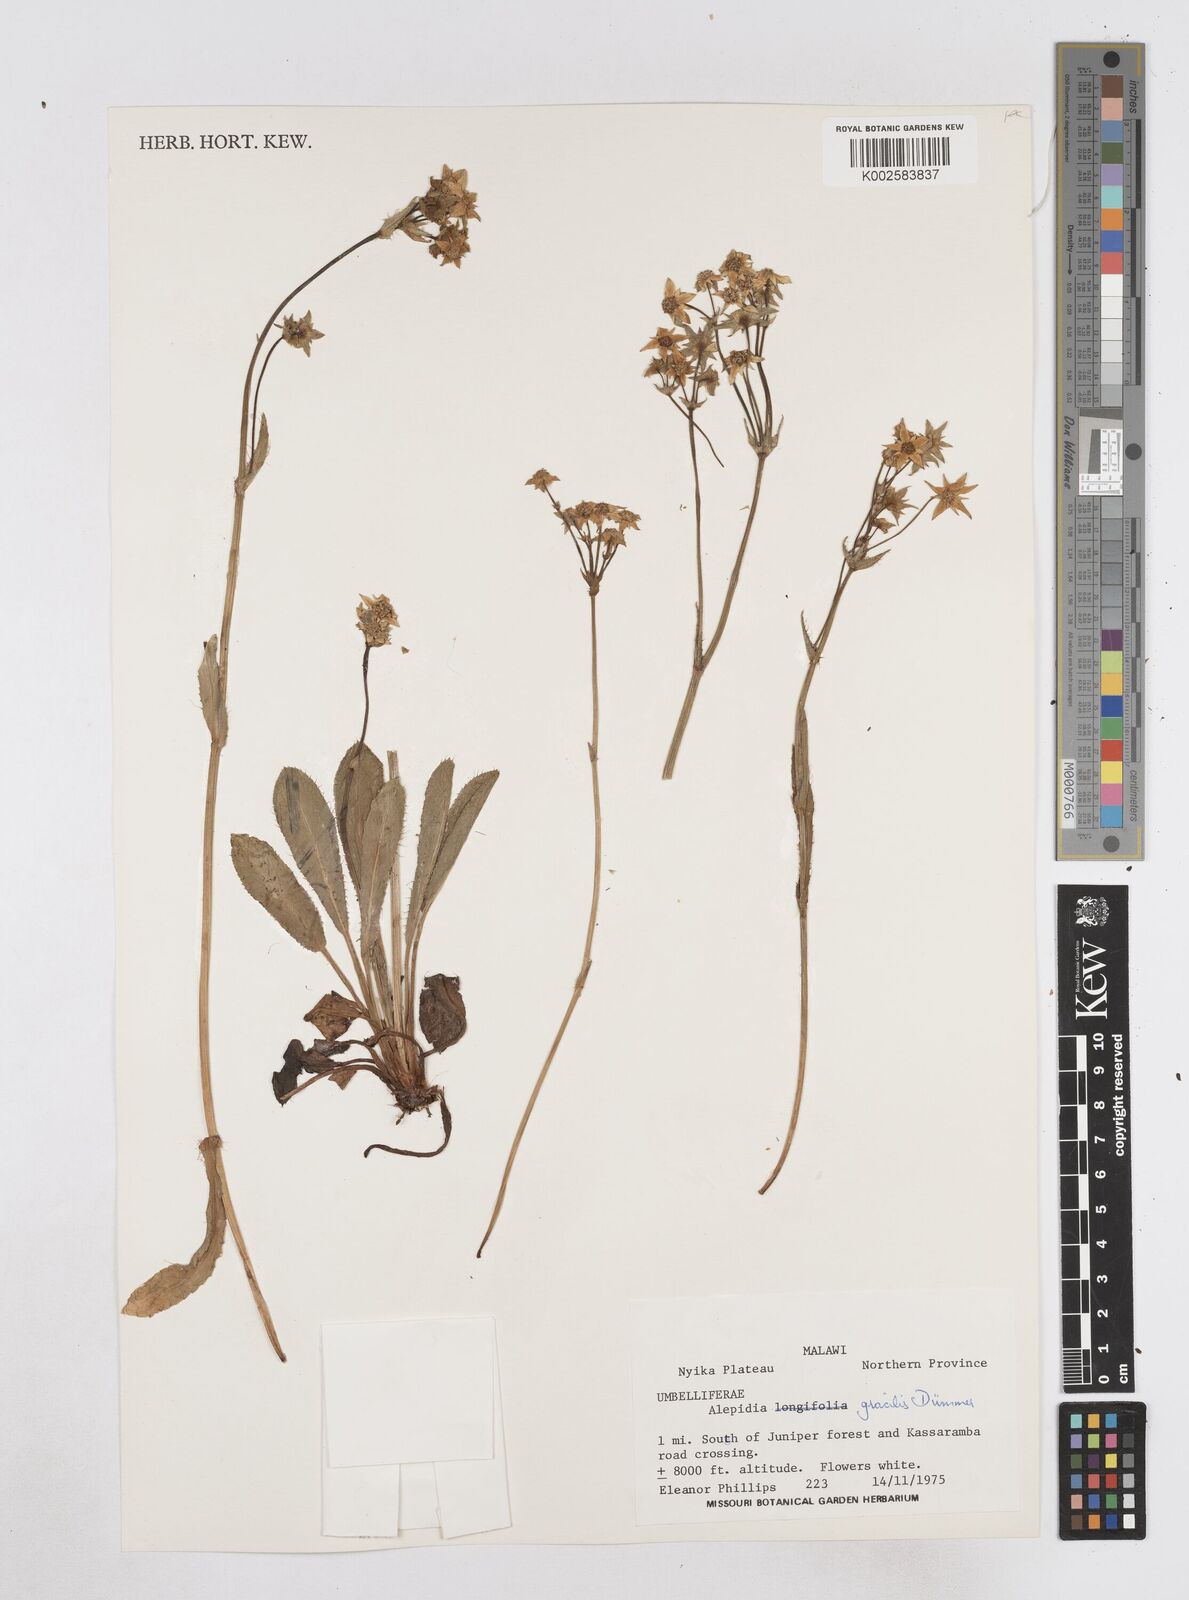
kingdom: Plantae
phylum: Tracheophyta
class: Magnoliopsida
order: Apiales
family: Apiaceae
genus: Alepidea
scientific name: Alepidea peduncularis
